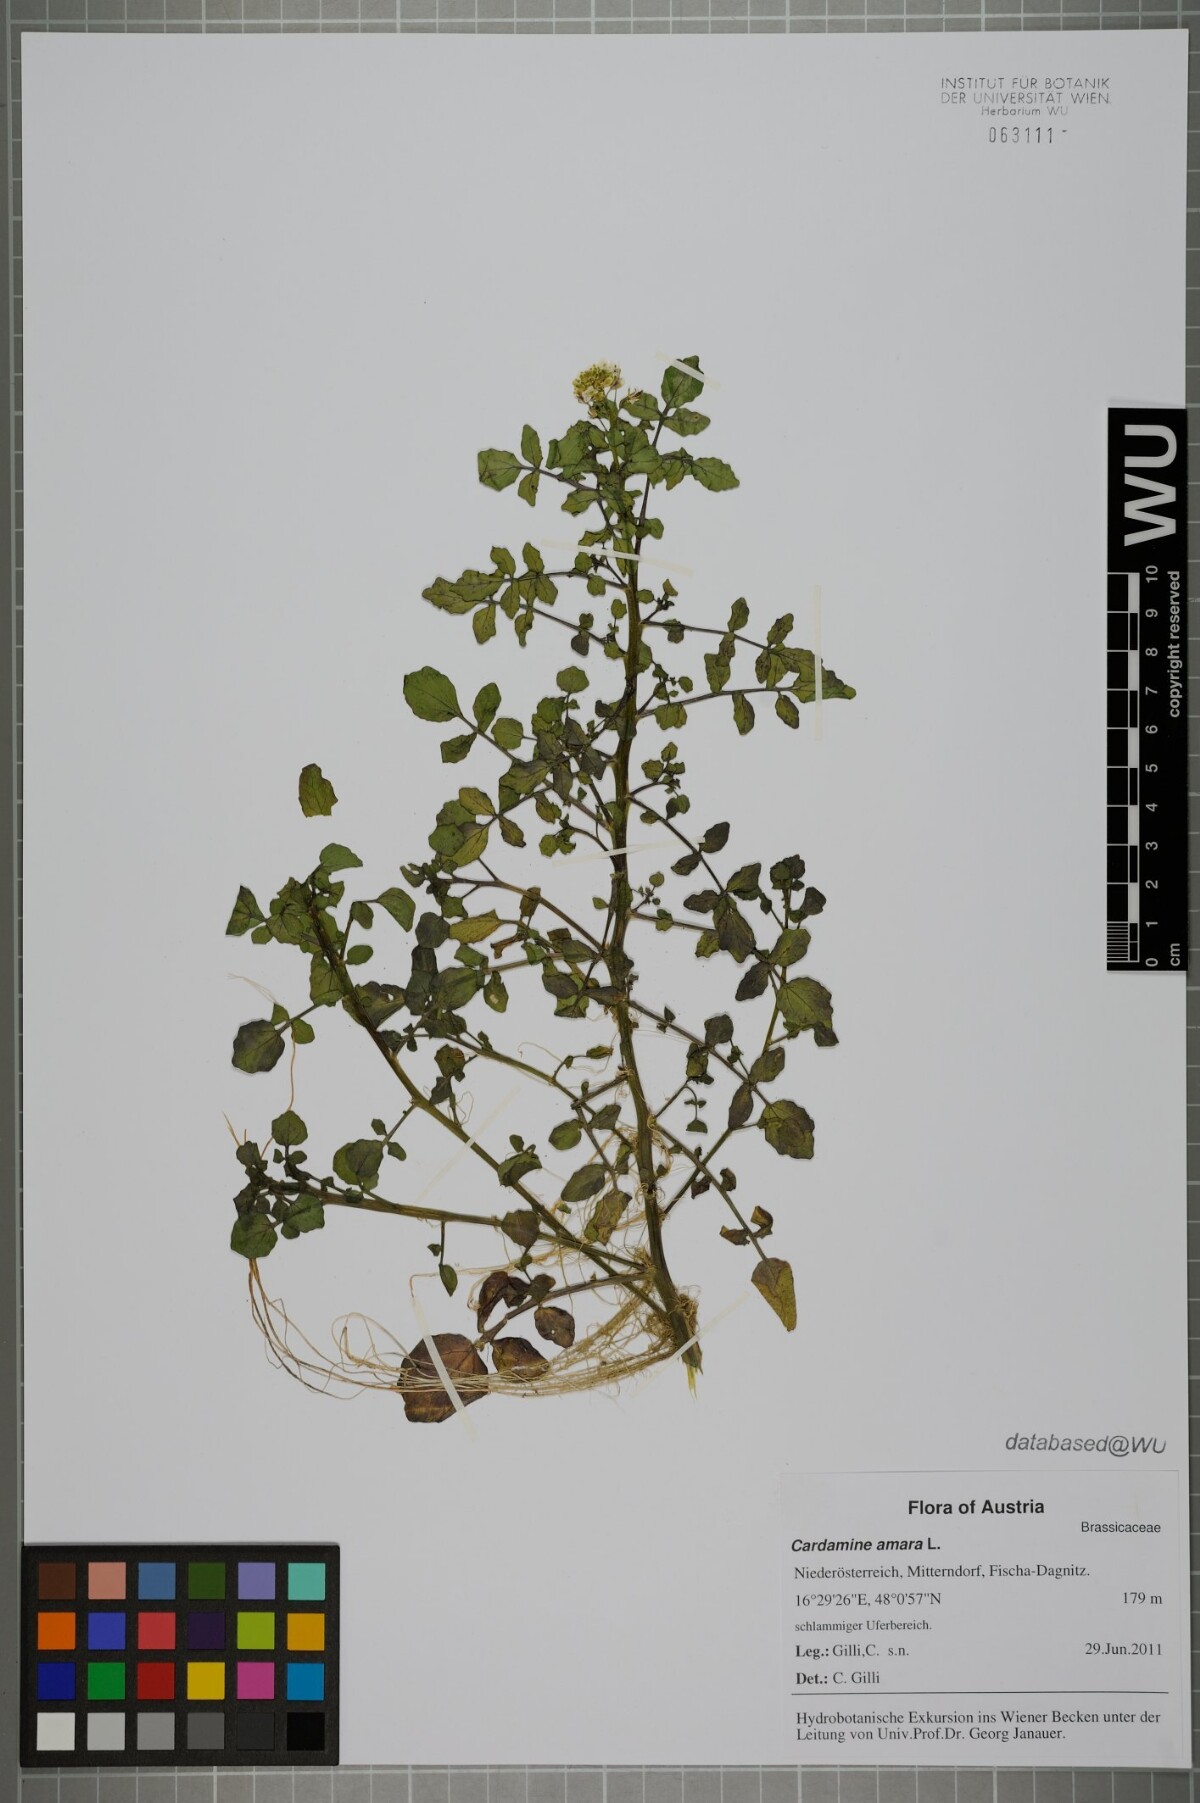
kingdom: Plantae
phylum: Tracheophyta
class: Magnoliopsida
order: Brassicales
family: Brassicaceae
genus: Cardamine
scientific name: Cardamine amara
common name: Large bitter-cress
